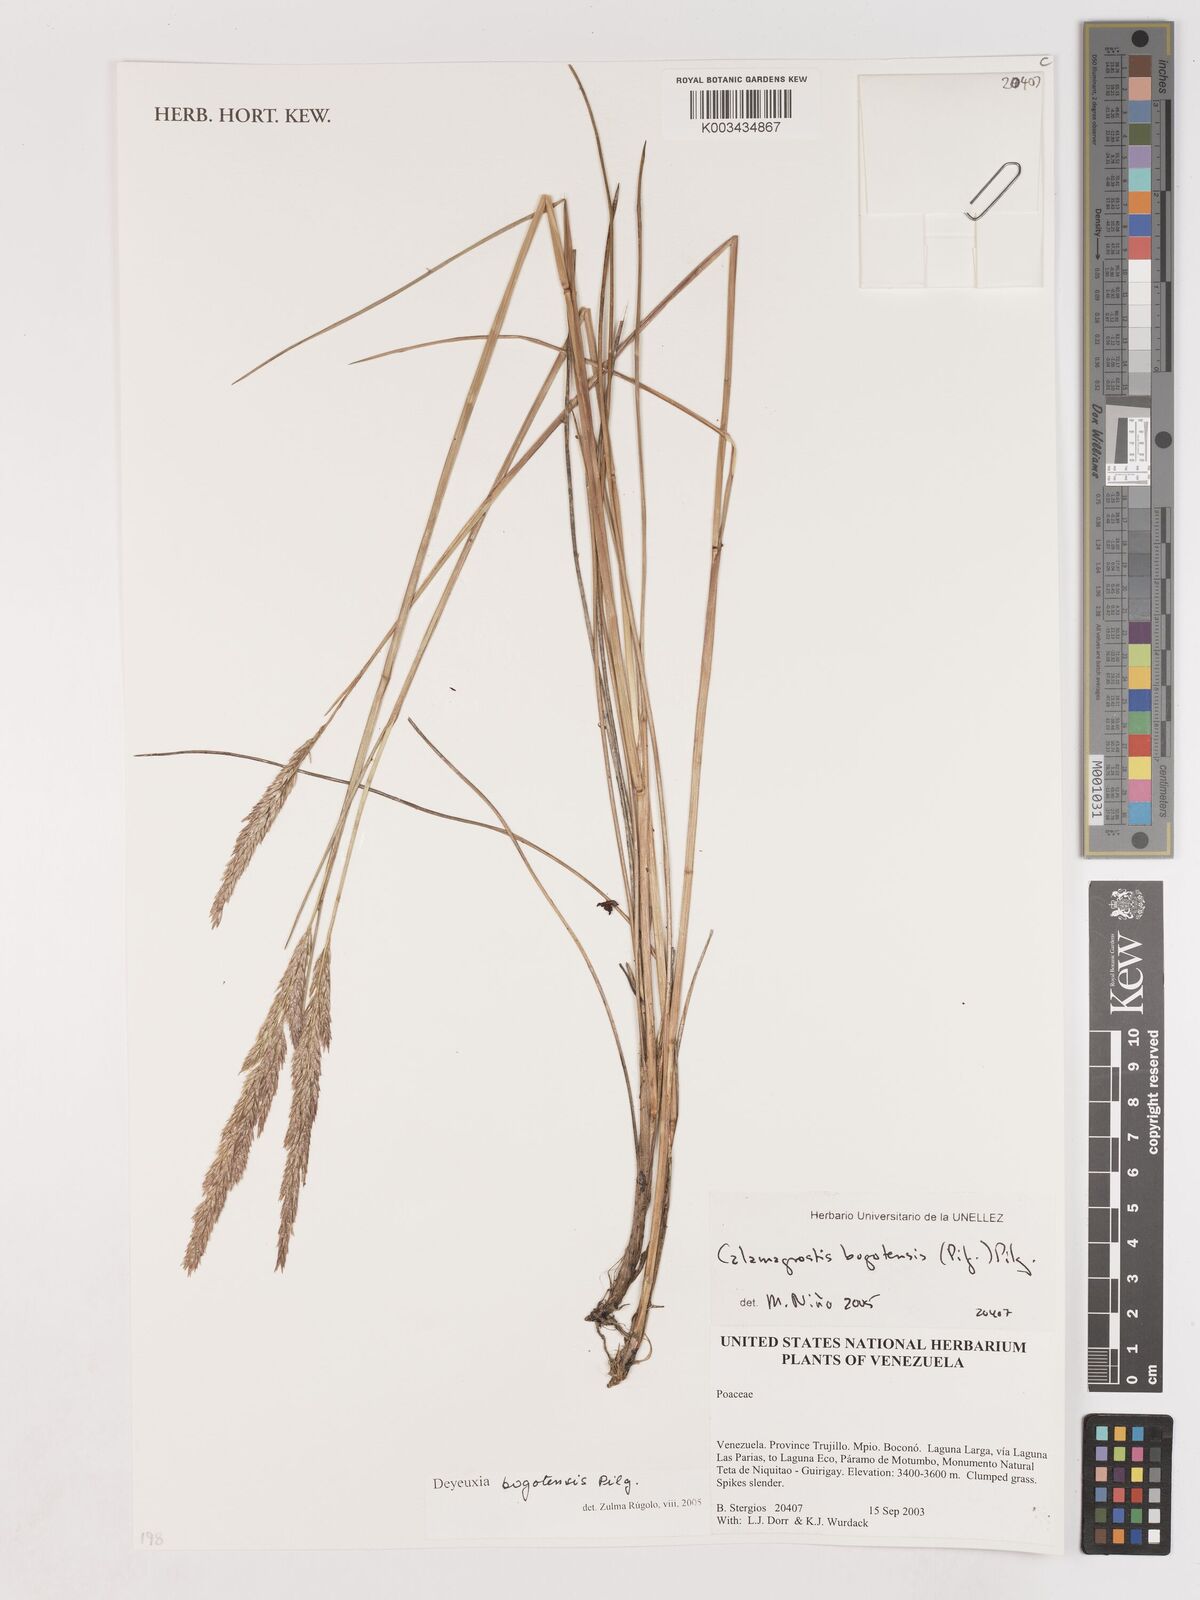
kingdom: Plantae
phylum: Tracheophyta
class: Liliopsida
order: Poales
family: Poaceae
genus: Calamagrostis
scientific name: Calamagrostis bogotensis
